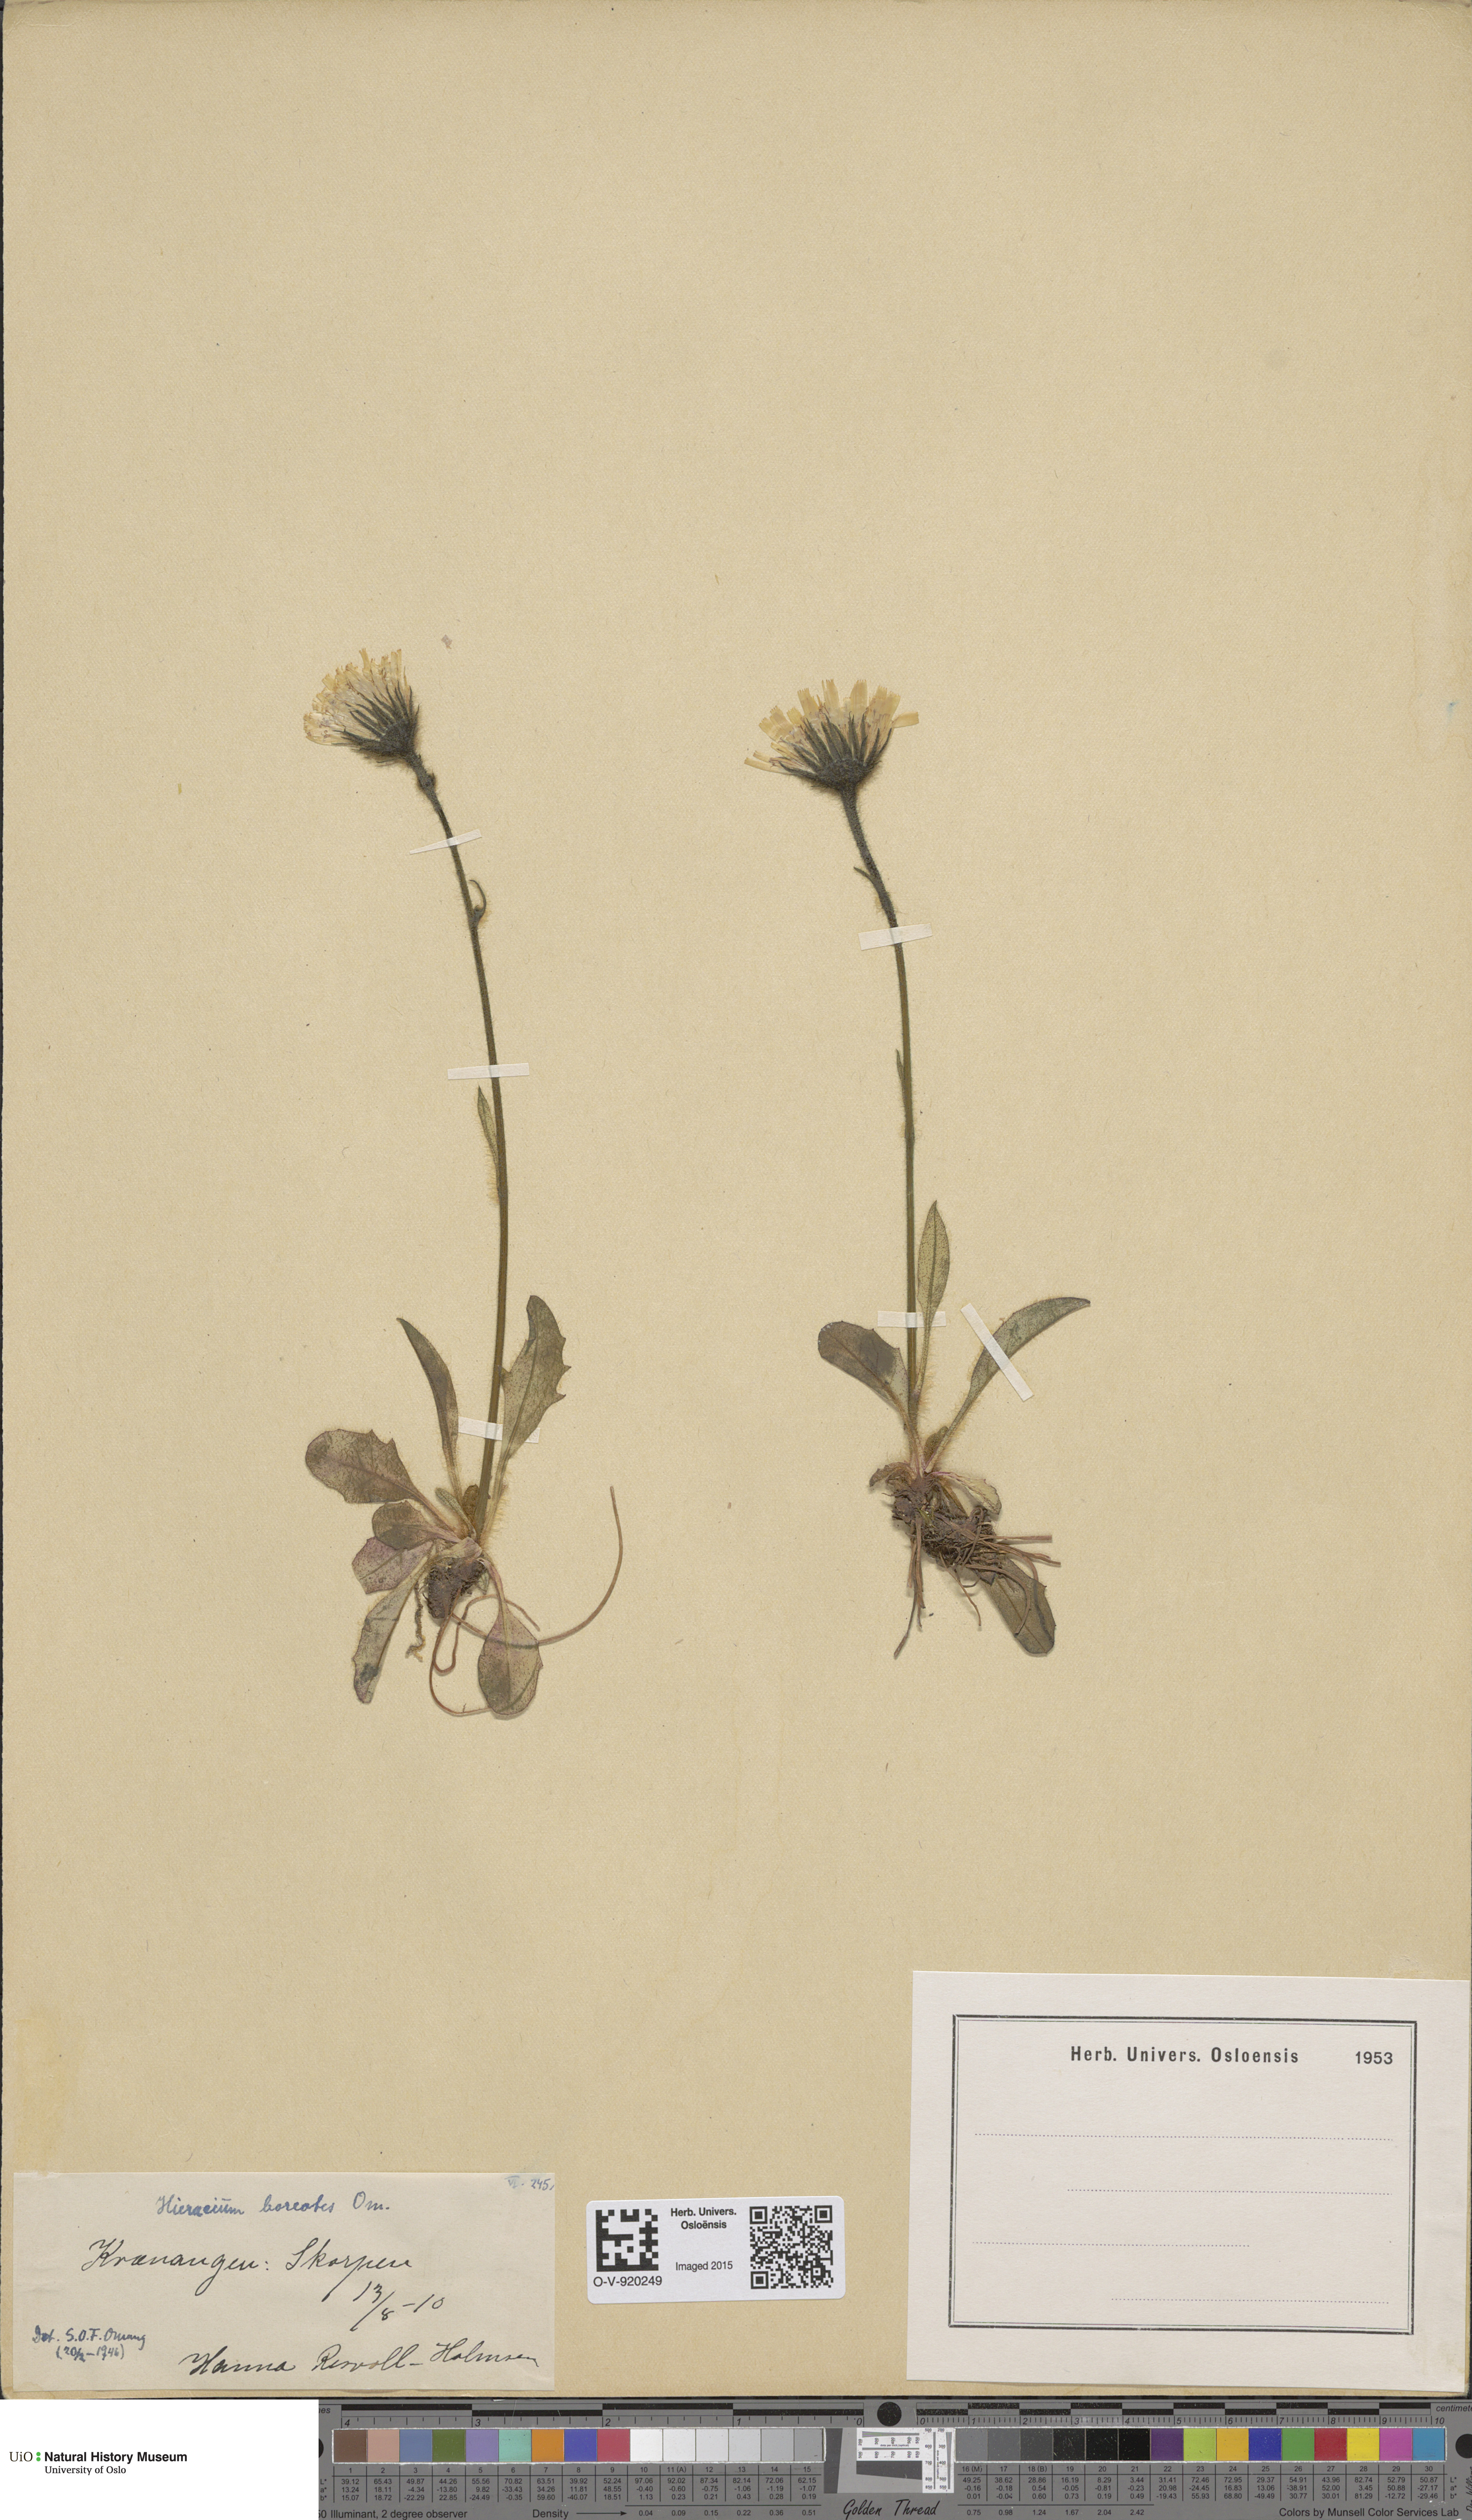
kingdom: Plantae
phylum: Tracheophyta
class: Magnoliopsida
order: Asterales
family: Asteraceae
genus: Hieracium
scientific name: Hieracium
